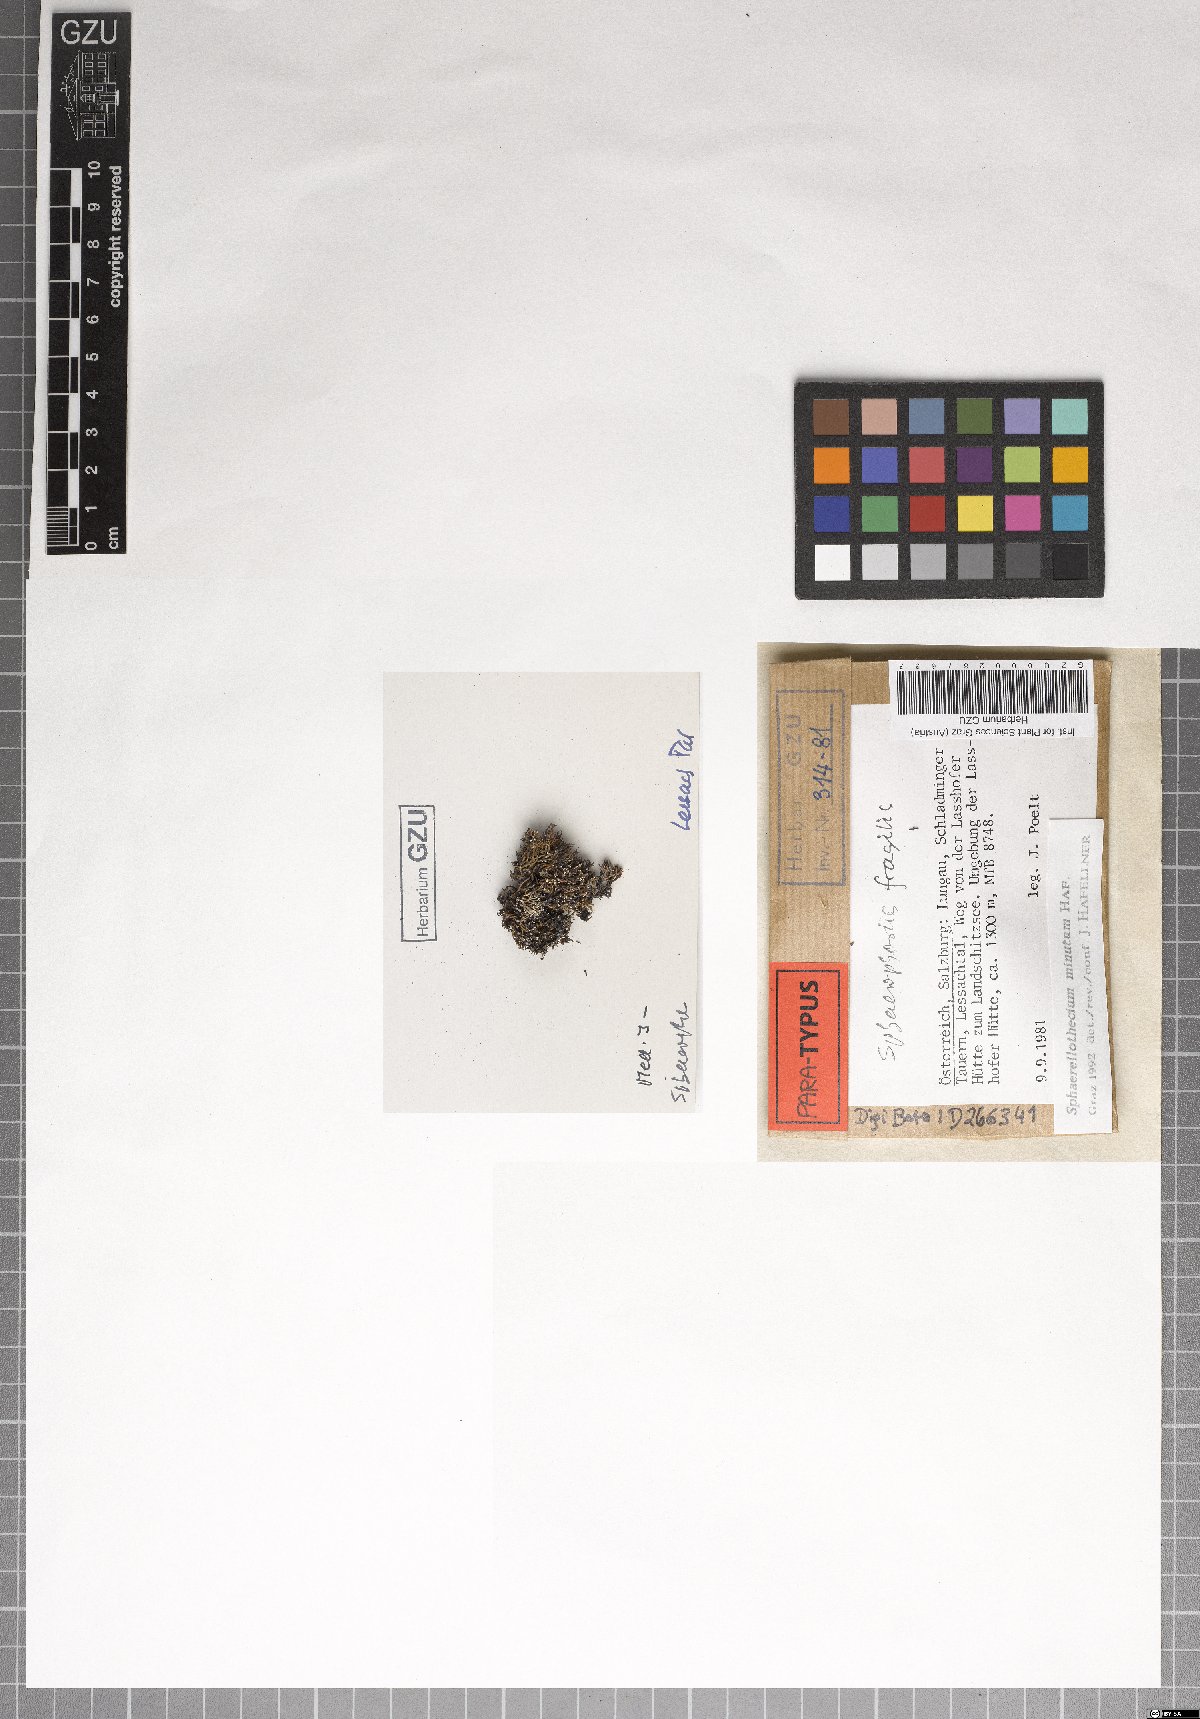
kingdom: Fungi
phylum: Ascomycota
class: Dothideomycetes
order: Mycosphaerellales
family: Mycosphaerellaceae
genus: Sphaerellothecium
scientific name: Sphaerellothecium minutum
